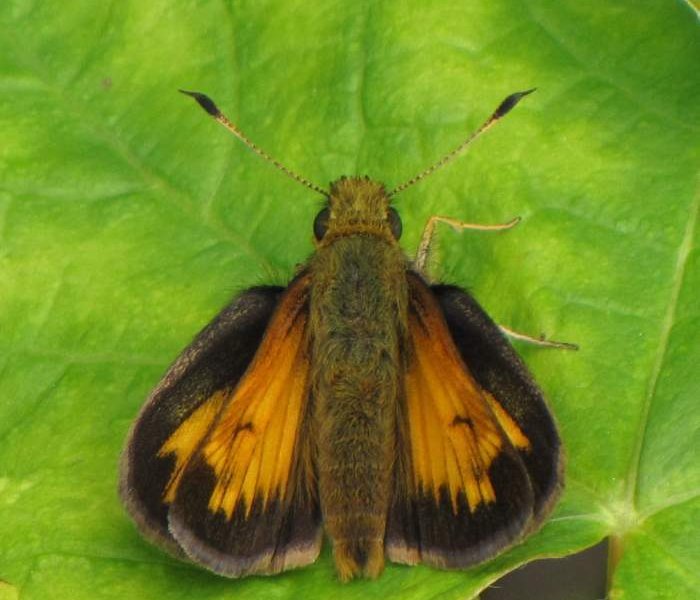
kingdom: Animalia
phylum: Arthropoda
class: Insecta
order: Lepidoptera
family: Hesperiidae
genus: Lon
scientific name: Lon hobomok
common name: Hobomok Skipper
